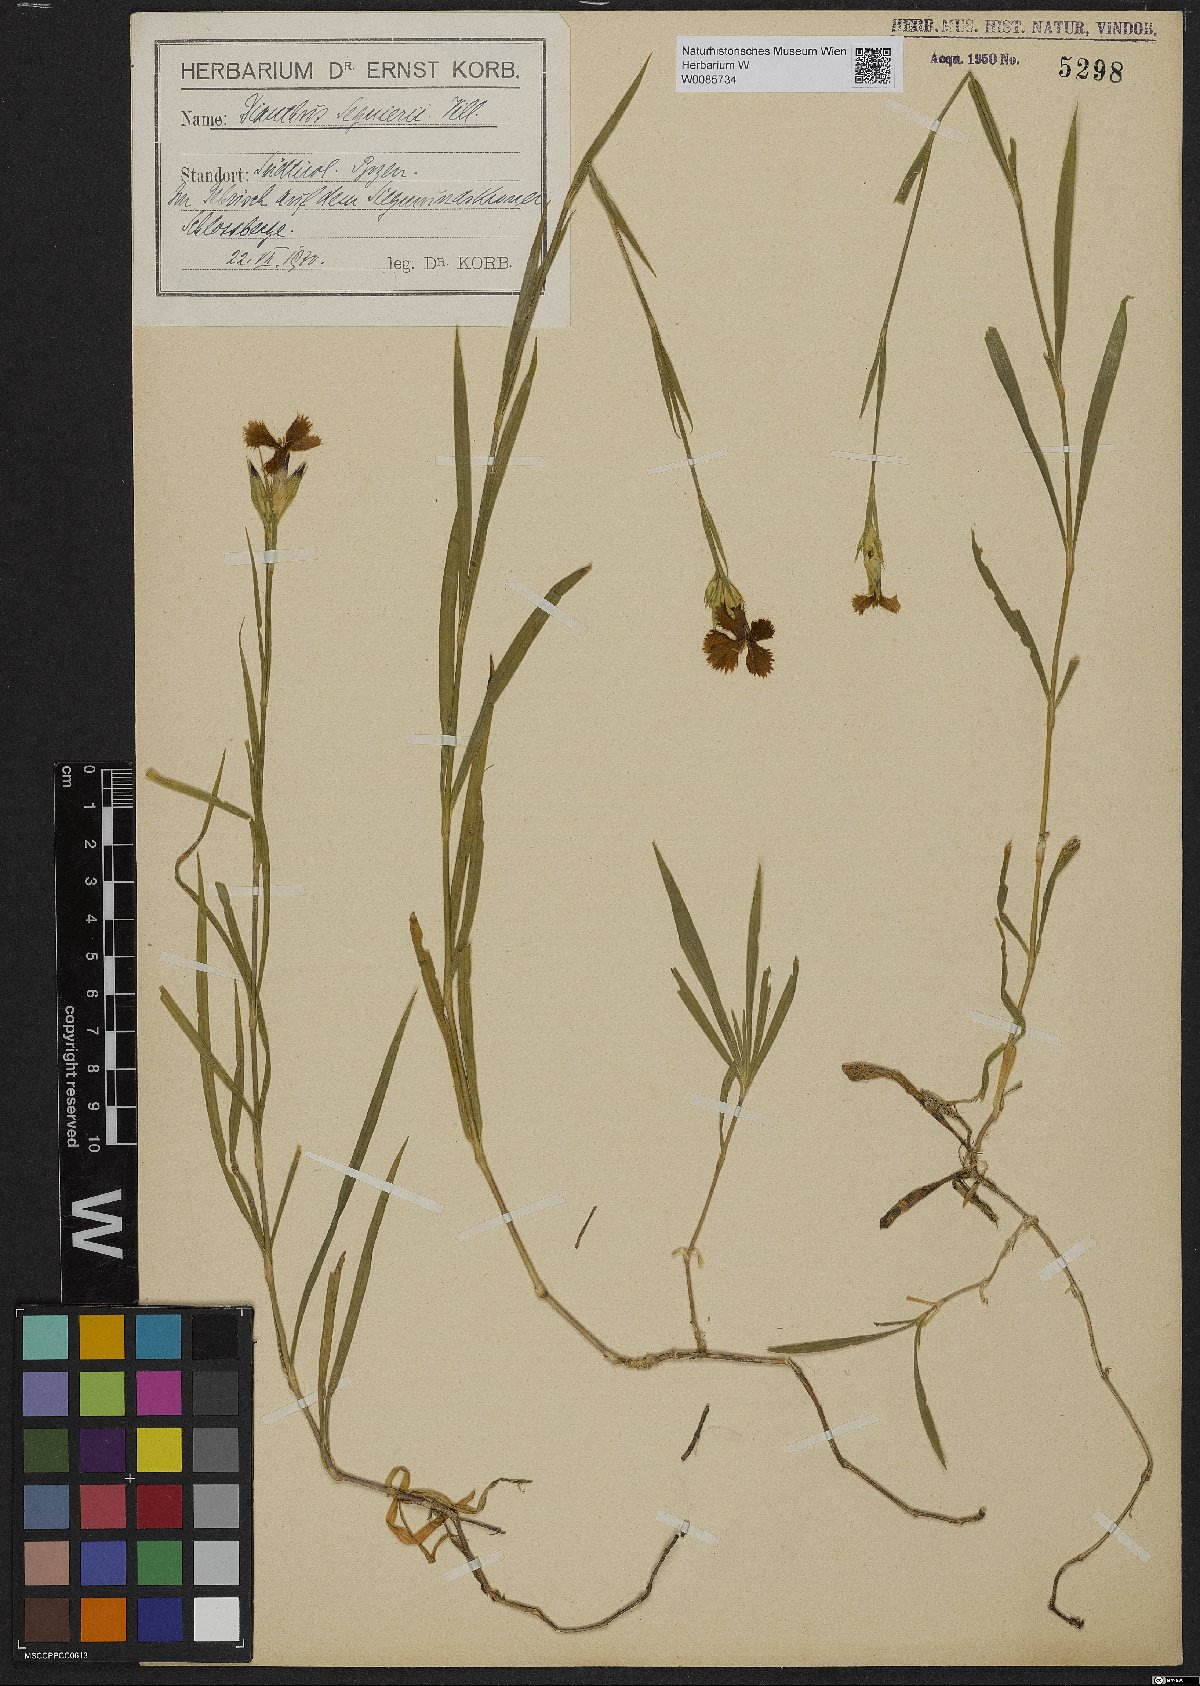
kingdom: Plantae
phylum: Tracheophyta
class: Magnoliopsida
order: Caryophyllales
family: Caryophyllaceae
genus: Dianthus
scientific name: Dianthus seguieri
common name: Ragged pink
